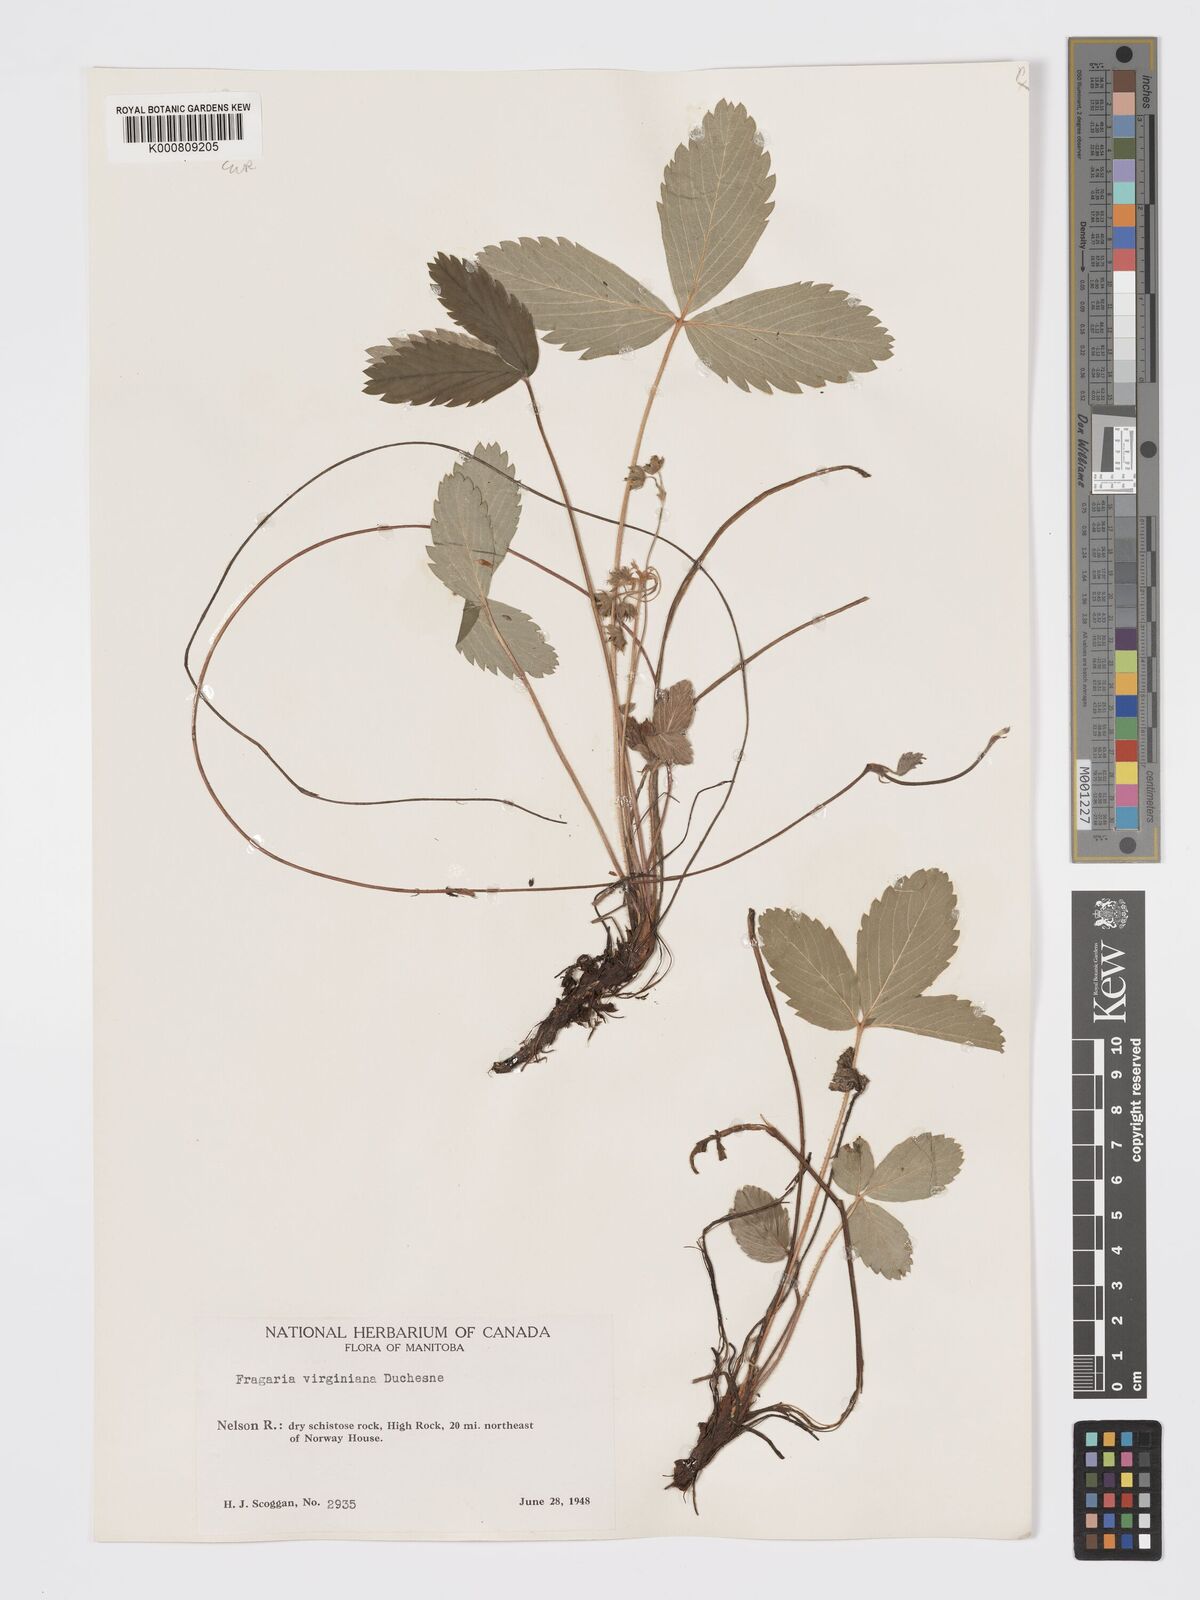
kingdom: Plantae
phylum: Tracheophyta
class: Magnoliopsida
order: Rosales
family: Rosaceae
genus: Fragaria
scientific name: Fragaria virginiana
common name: Thickleaved wild strawberry
